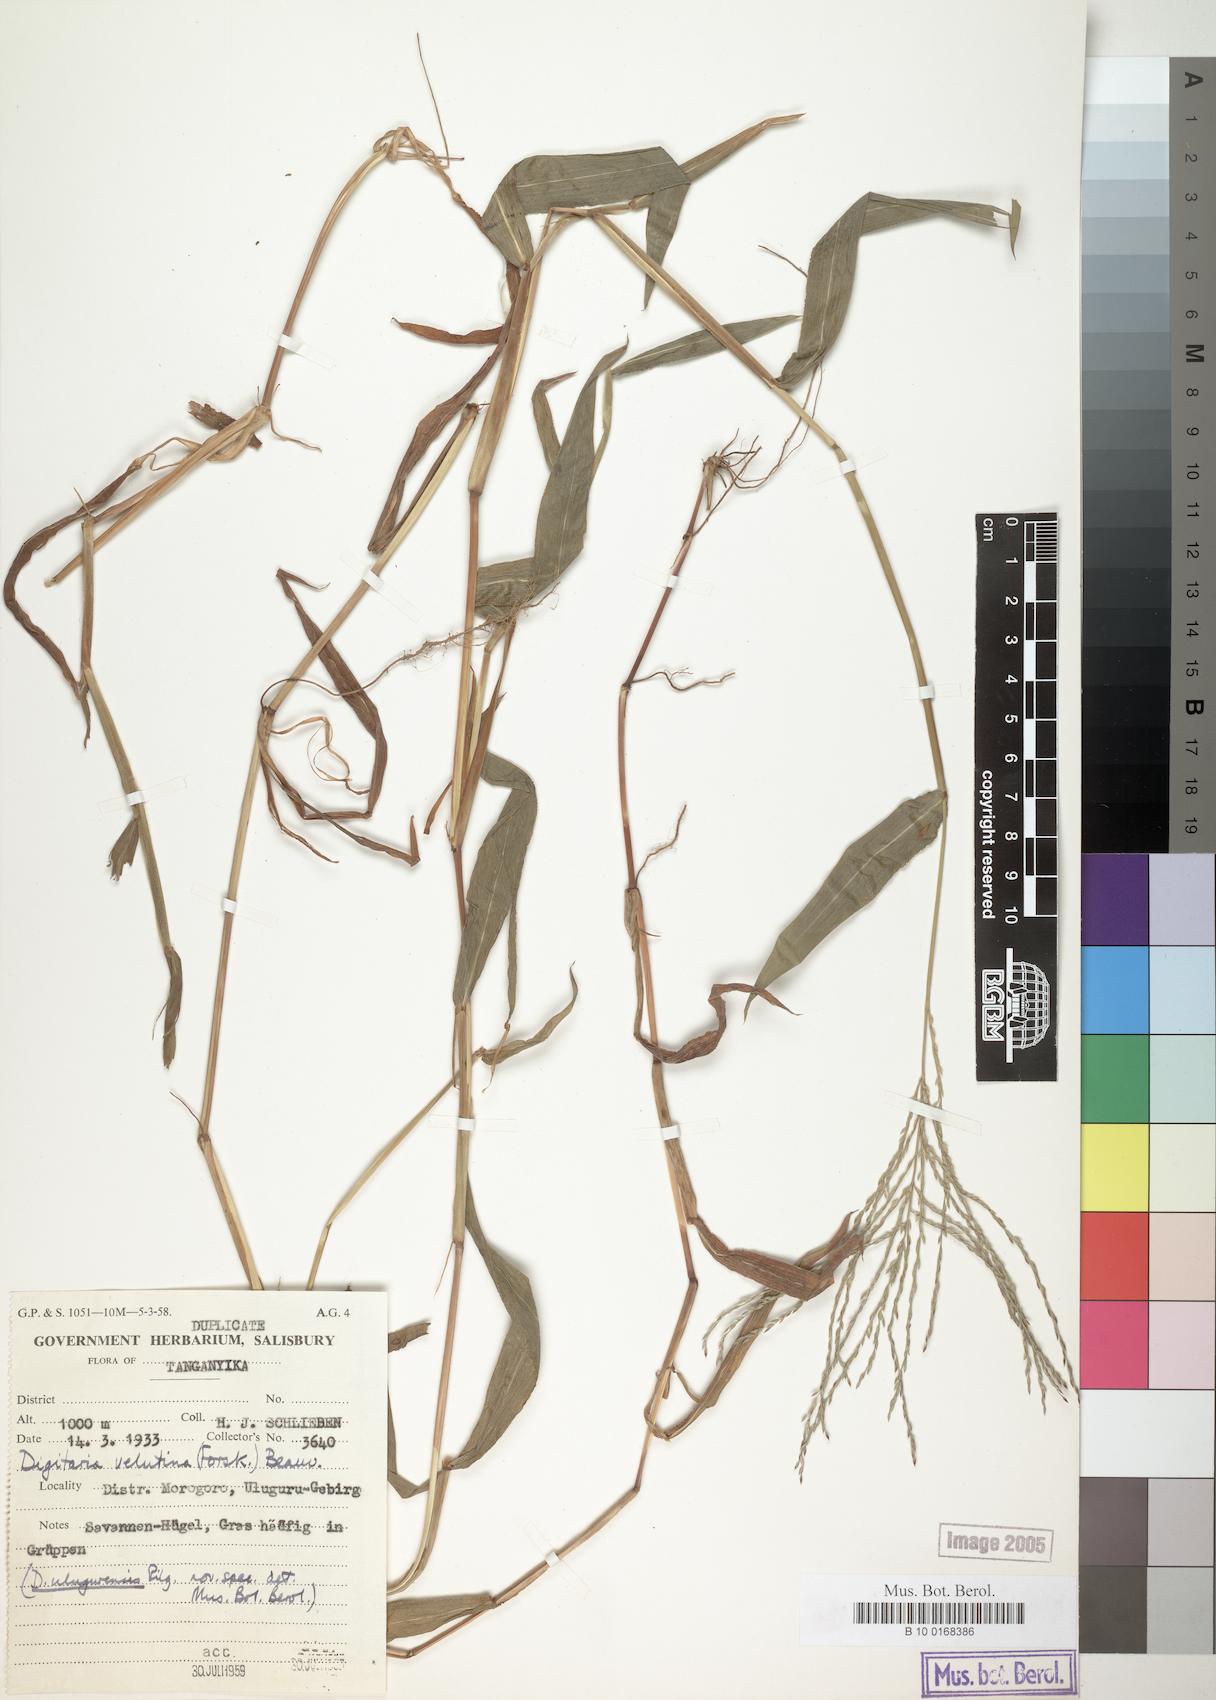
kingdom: Plantae
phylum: Tracheophyta
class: Liliopsida
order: Poales
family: Poaceae
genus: Digitaria
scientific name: Digitaria velutina
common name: Long-plume finger grass
